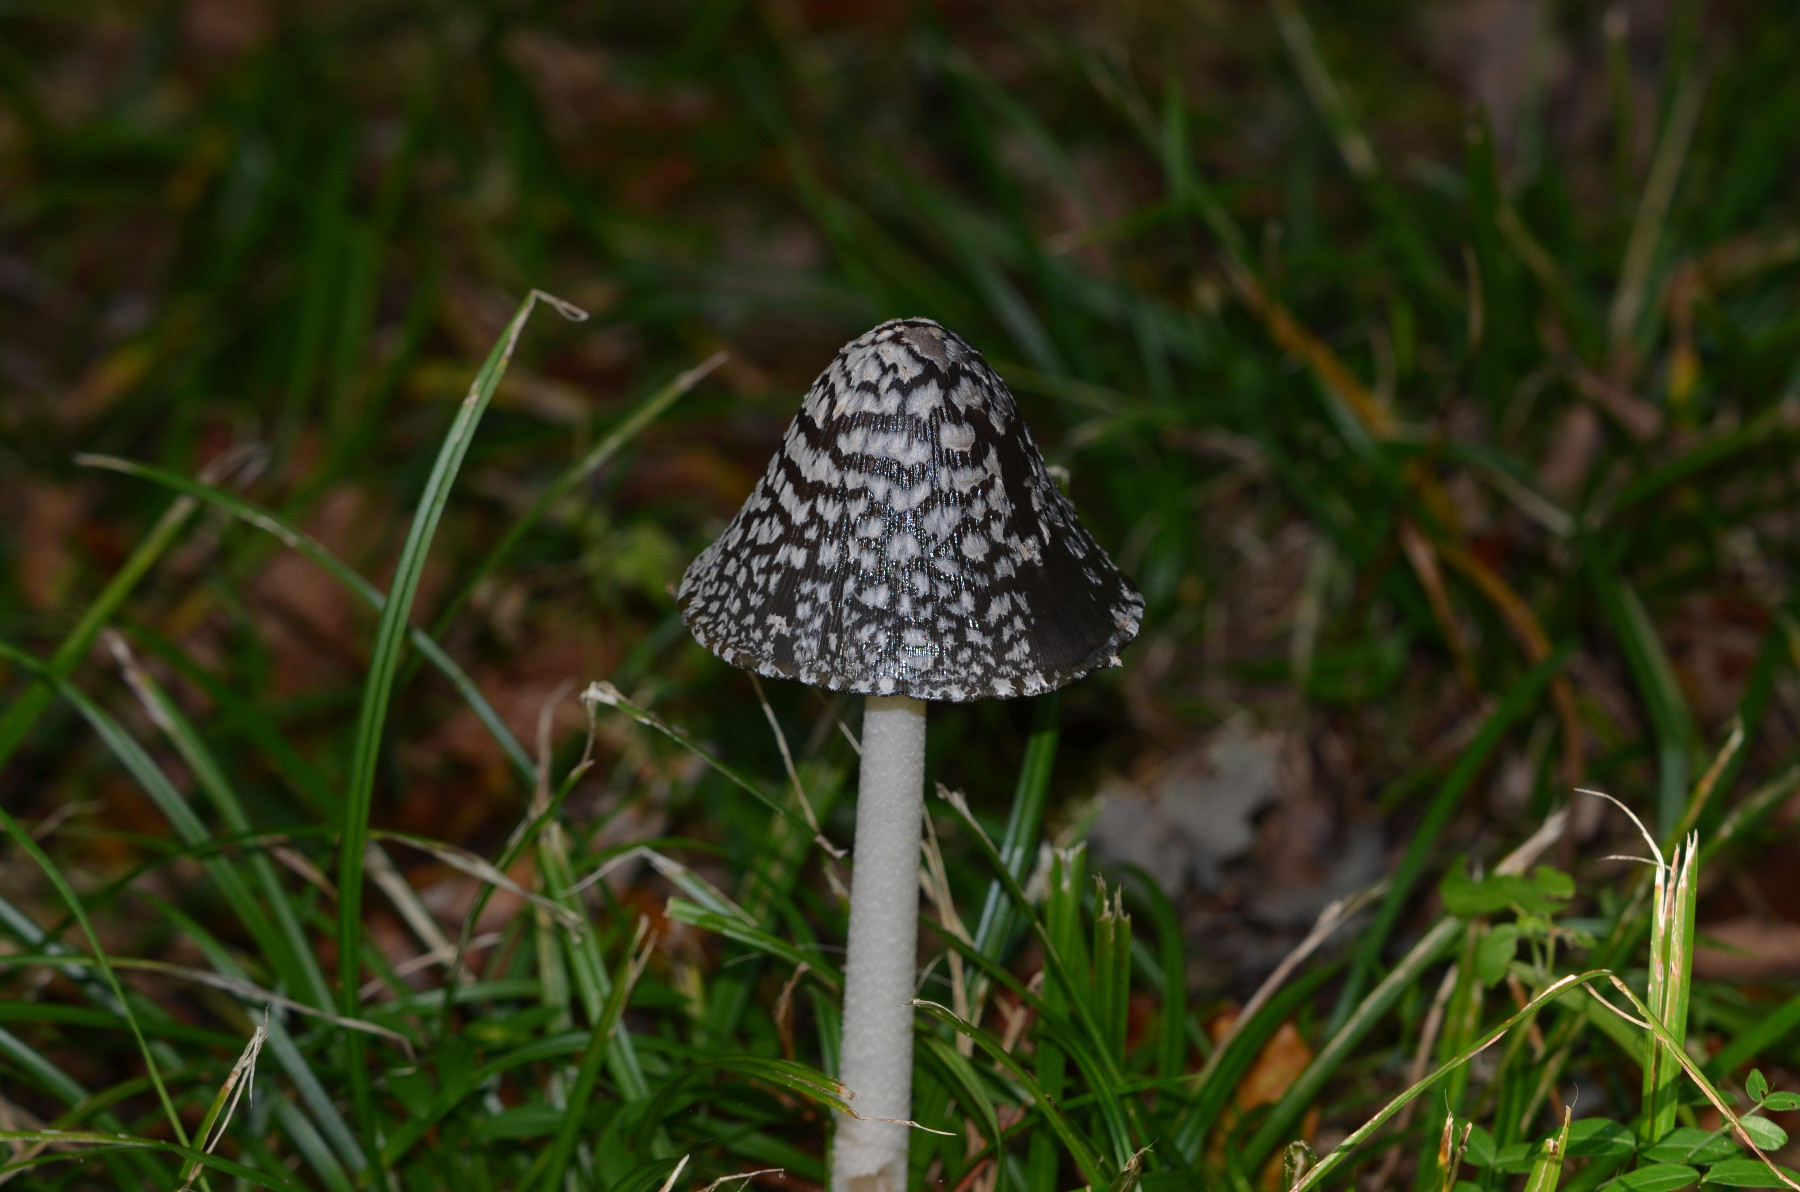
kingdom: Fungi
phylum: Basidiomycota
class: Agaricomycetes
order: Agaricales
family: Psathyrellaceae
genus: Coprinopsis
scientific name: Coprinopsis picacea
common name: skade-blækhat
